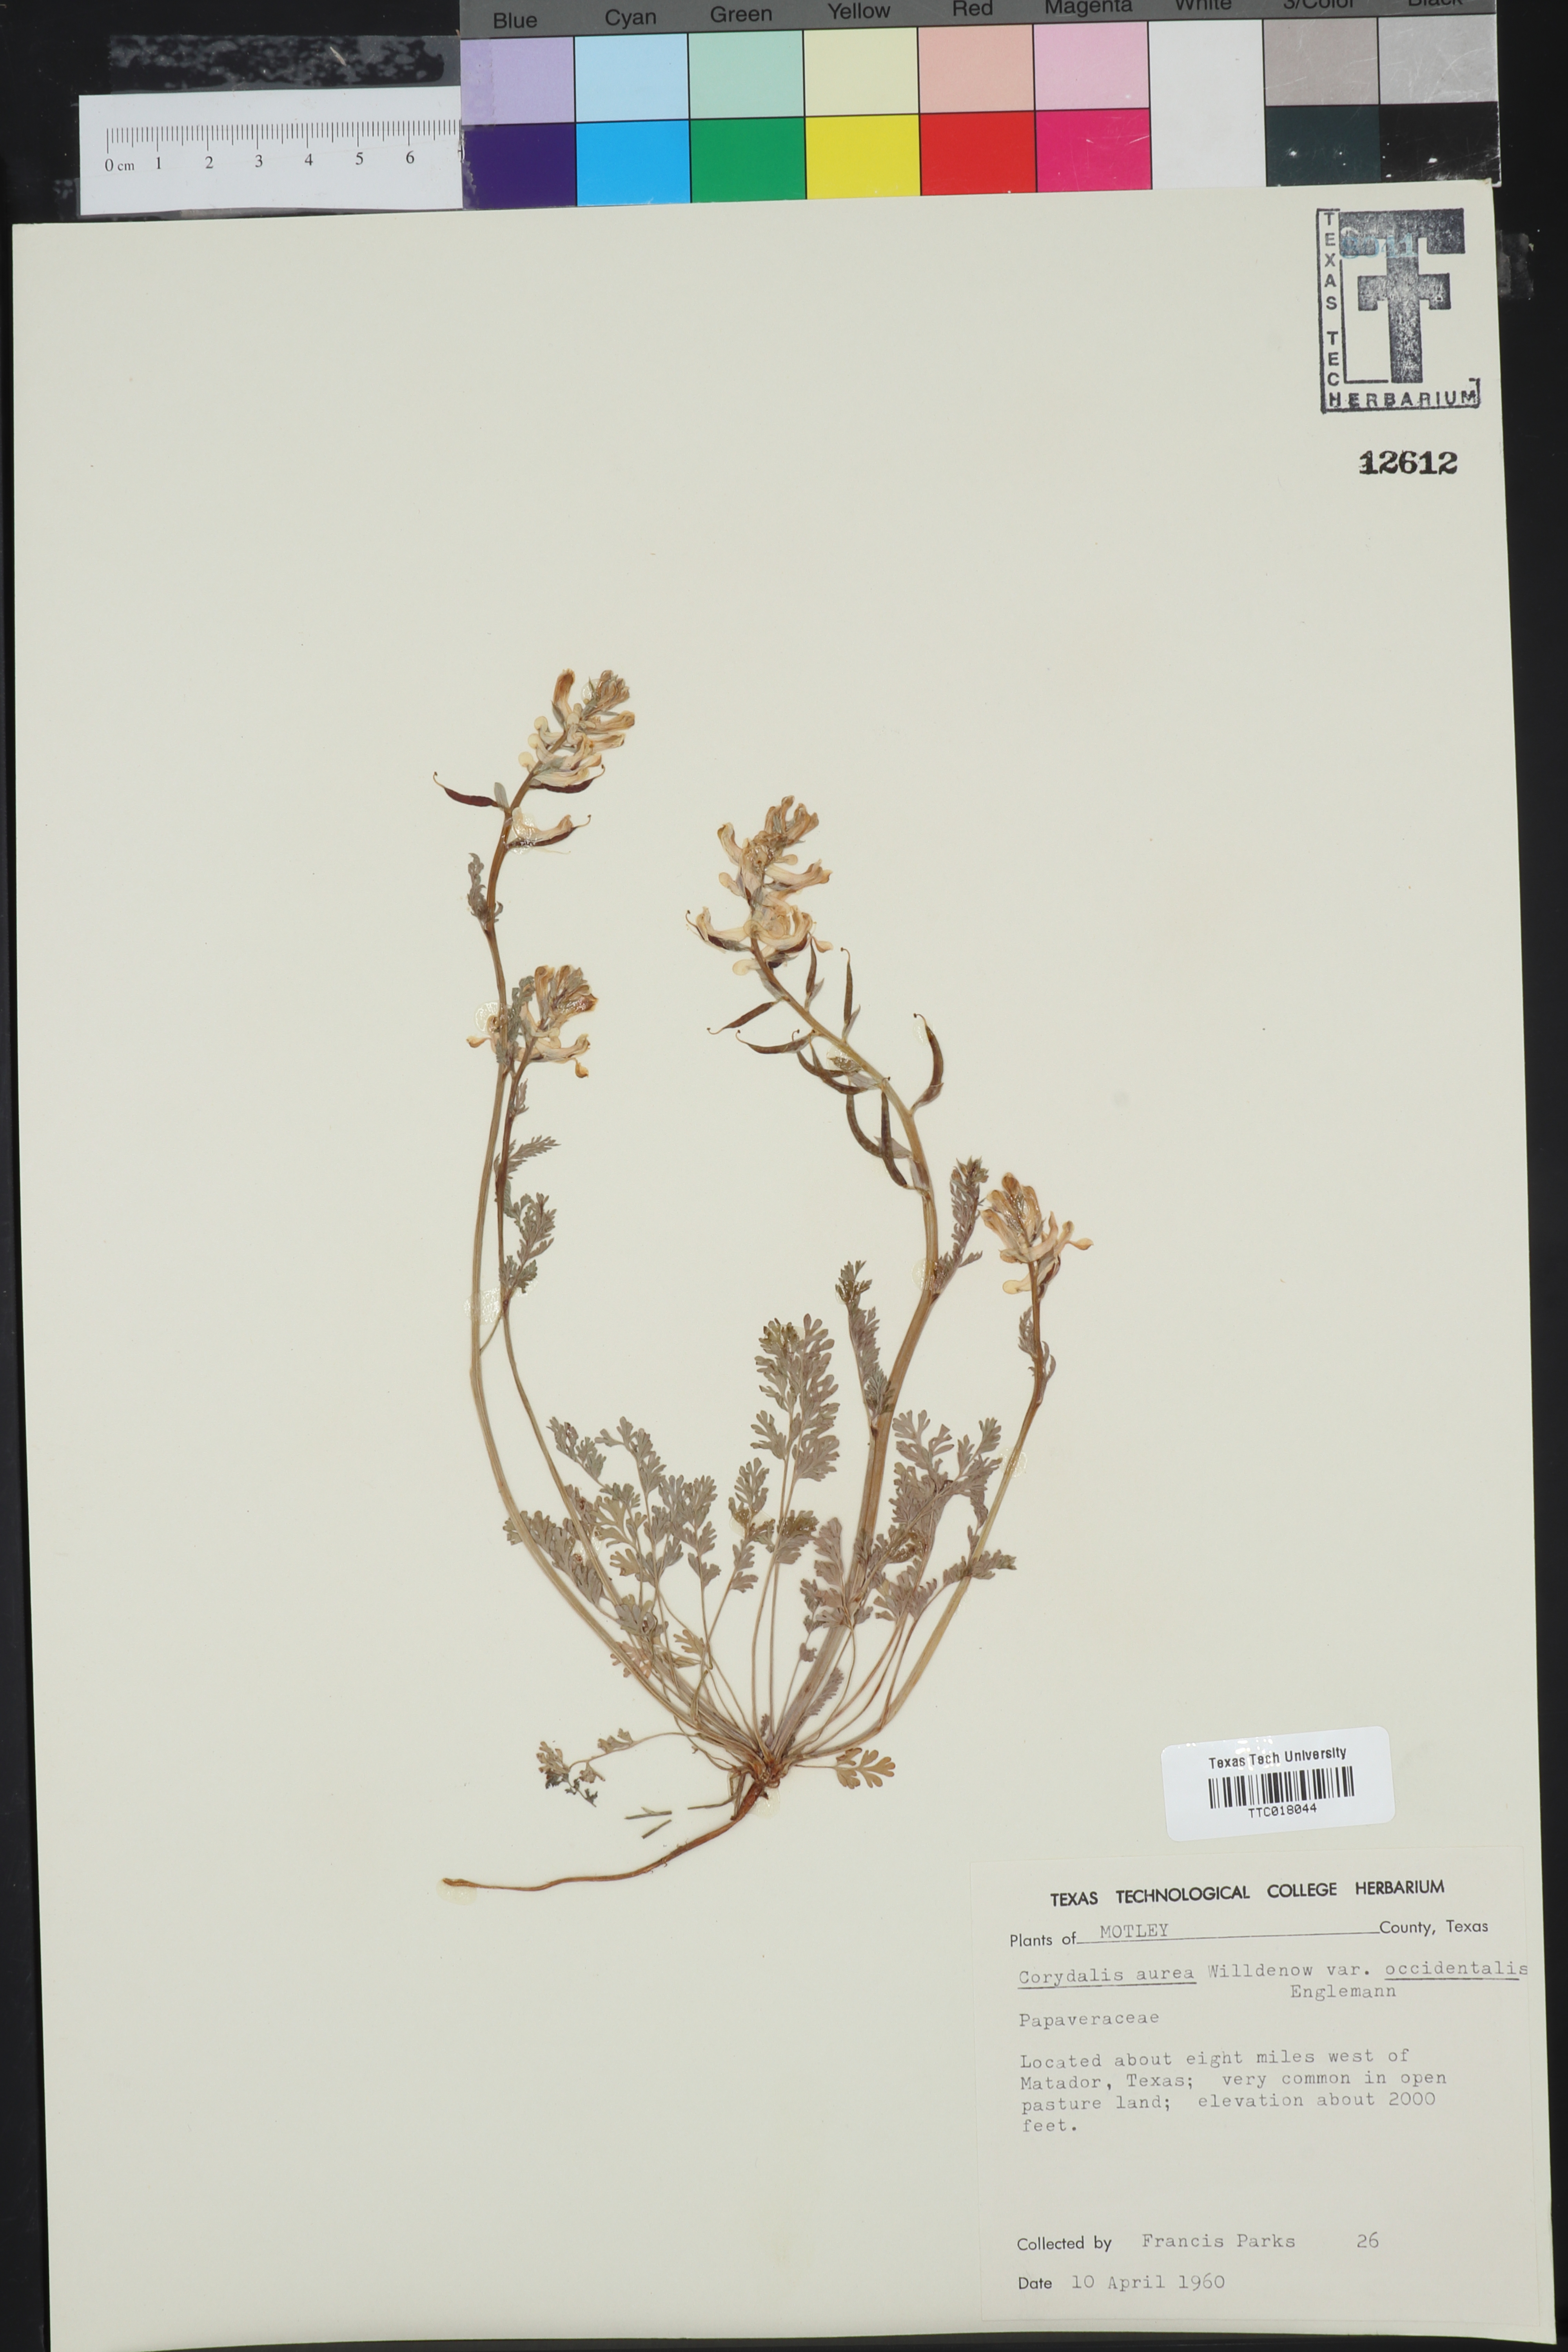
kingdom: Plantae
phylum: Tracheophyta
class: Magnoliopsida
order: Ranunculales
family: Papaveraceae
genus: Corydalis
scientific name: Corydalis curvisiliqua
